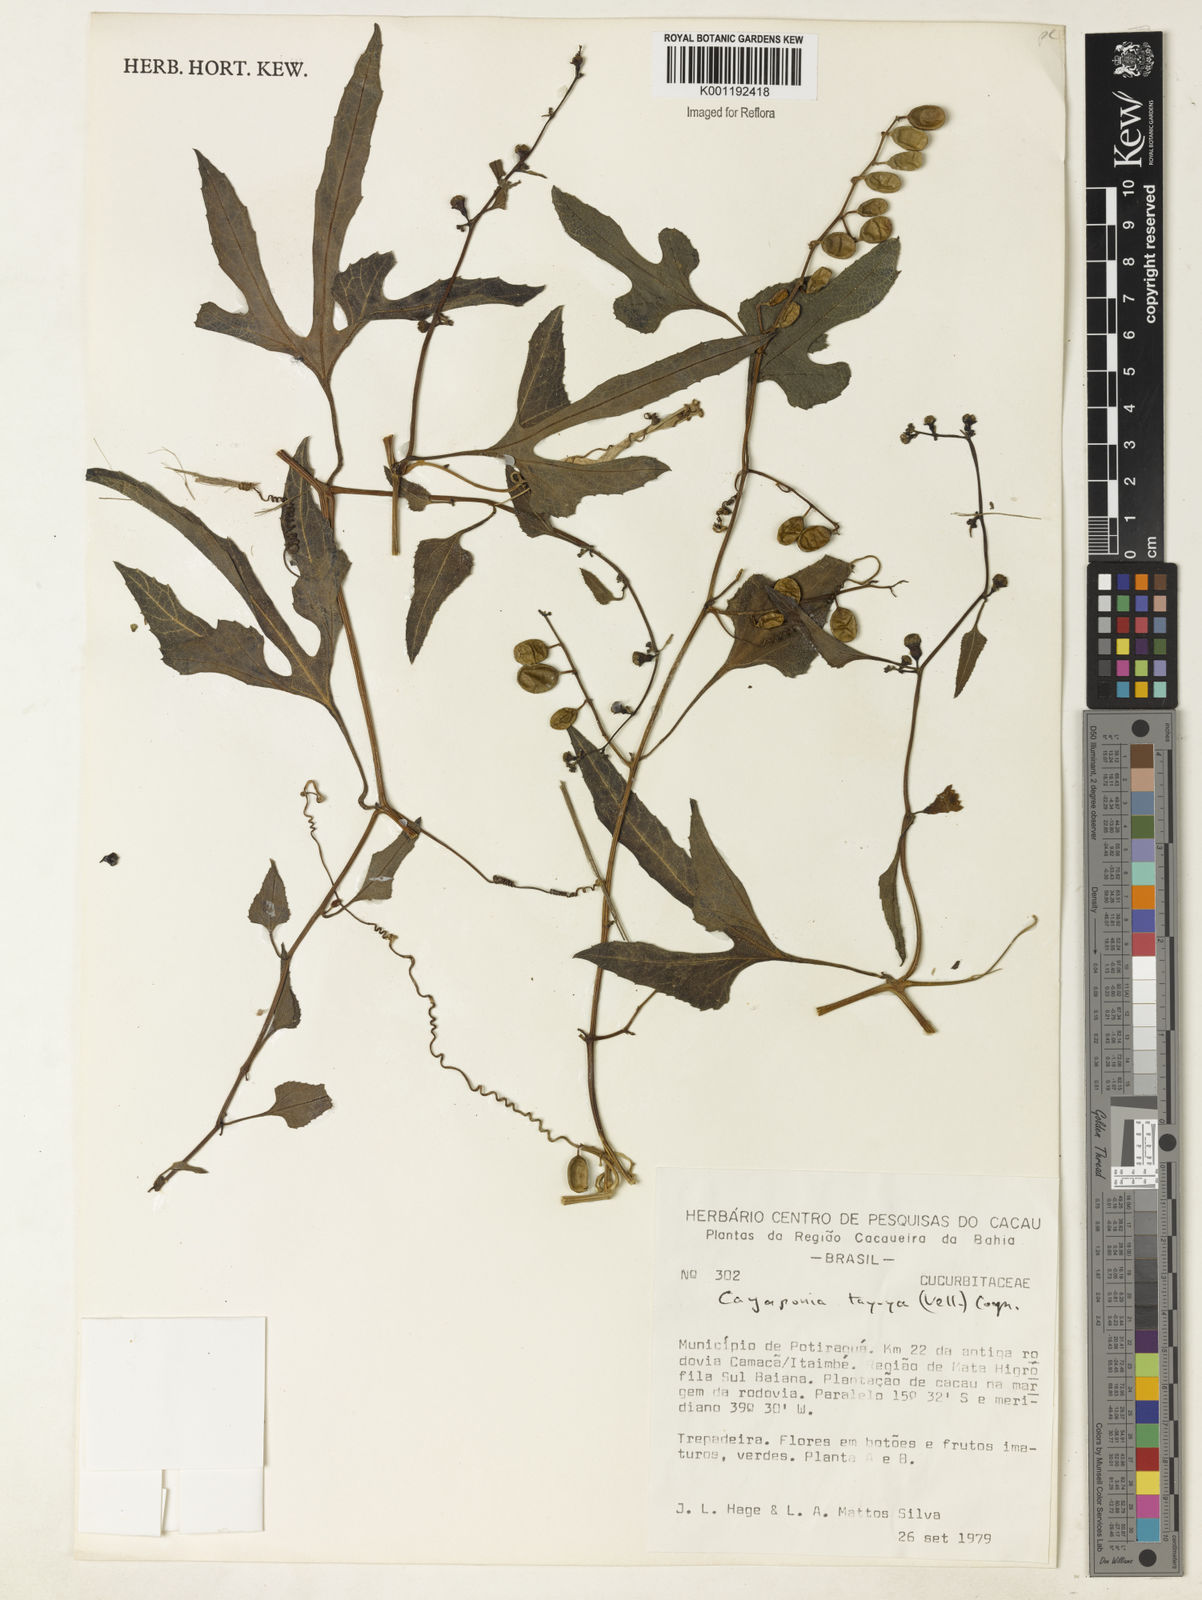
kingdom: Plantae
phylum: Tracheophyta
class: Magnoliopsida
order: Cucurbitales
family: Cucurbitaceae
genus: Cayaponia
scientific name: Cayaponia tayuya
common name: Tayuya
